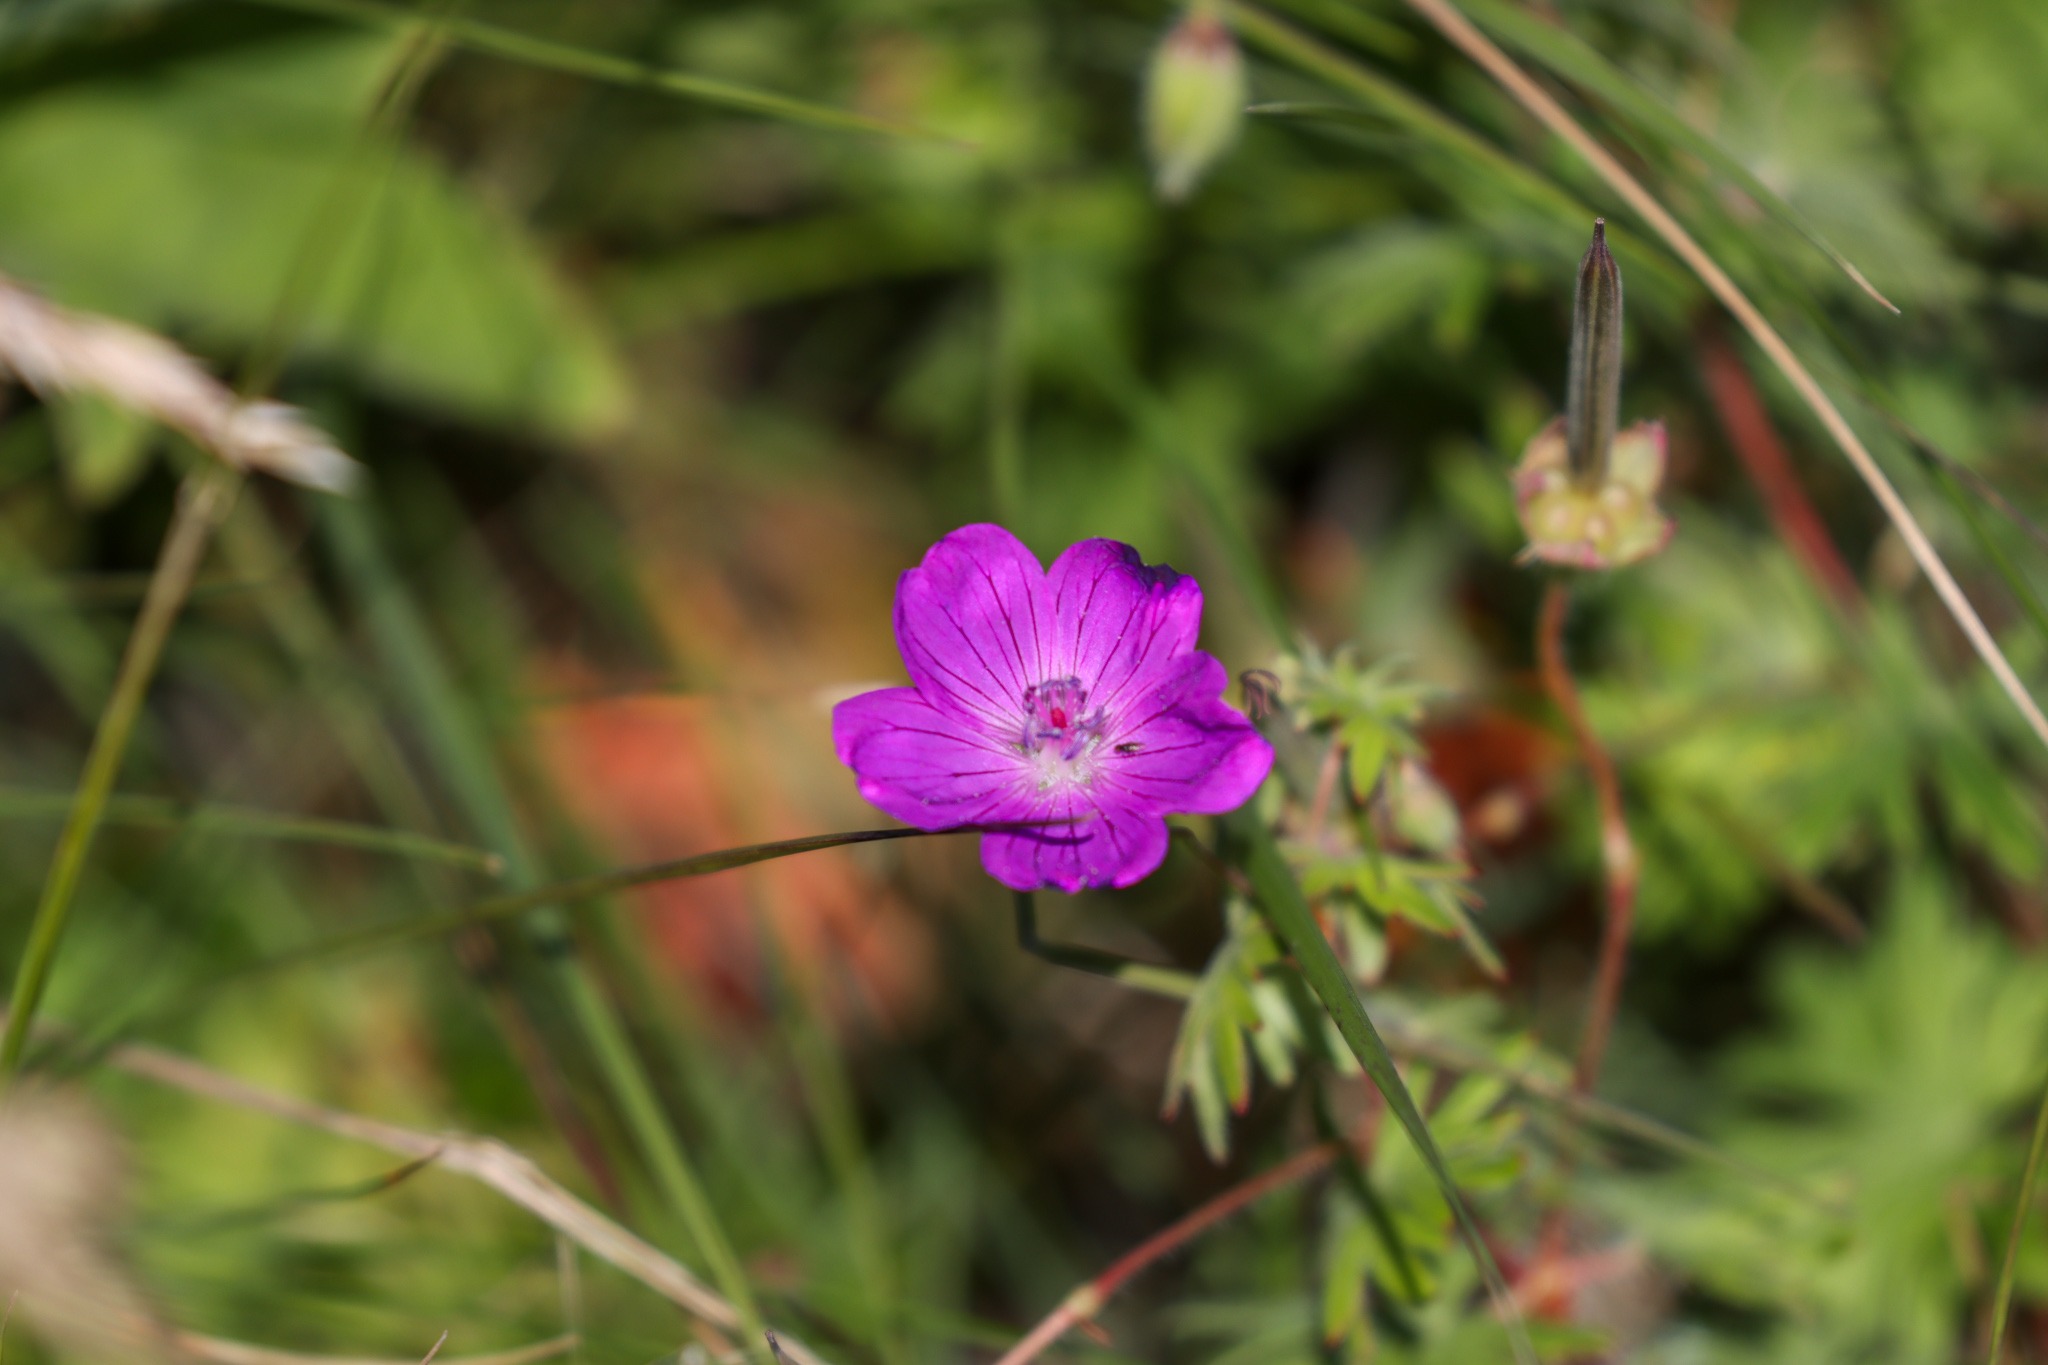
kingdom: Plantae
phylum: Tracheophyta
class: Magnoliopsida
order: Geraniales
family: Geraniaceae
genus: Geranium
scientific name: Geranium sanguineum
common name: Blodrød storkenæb
